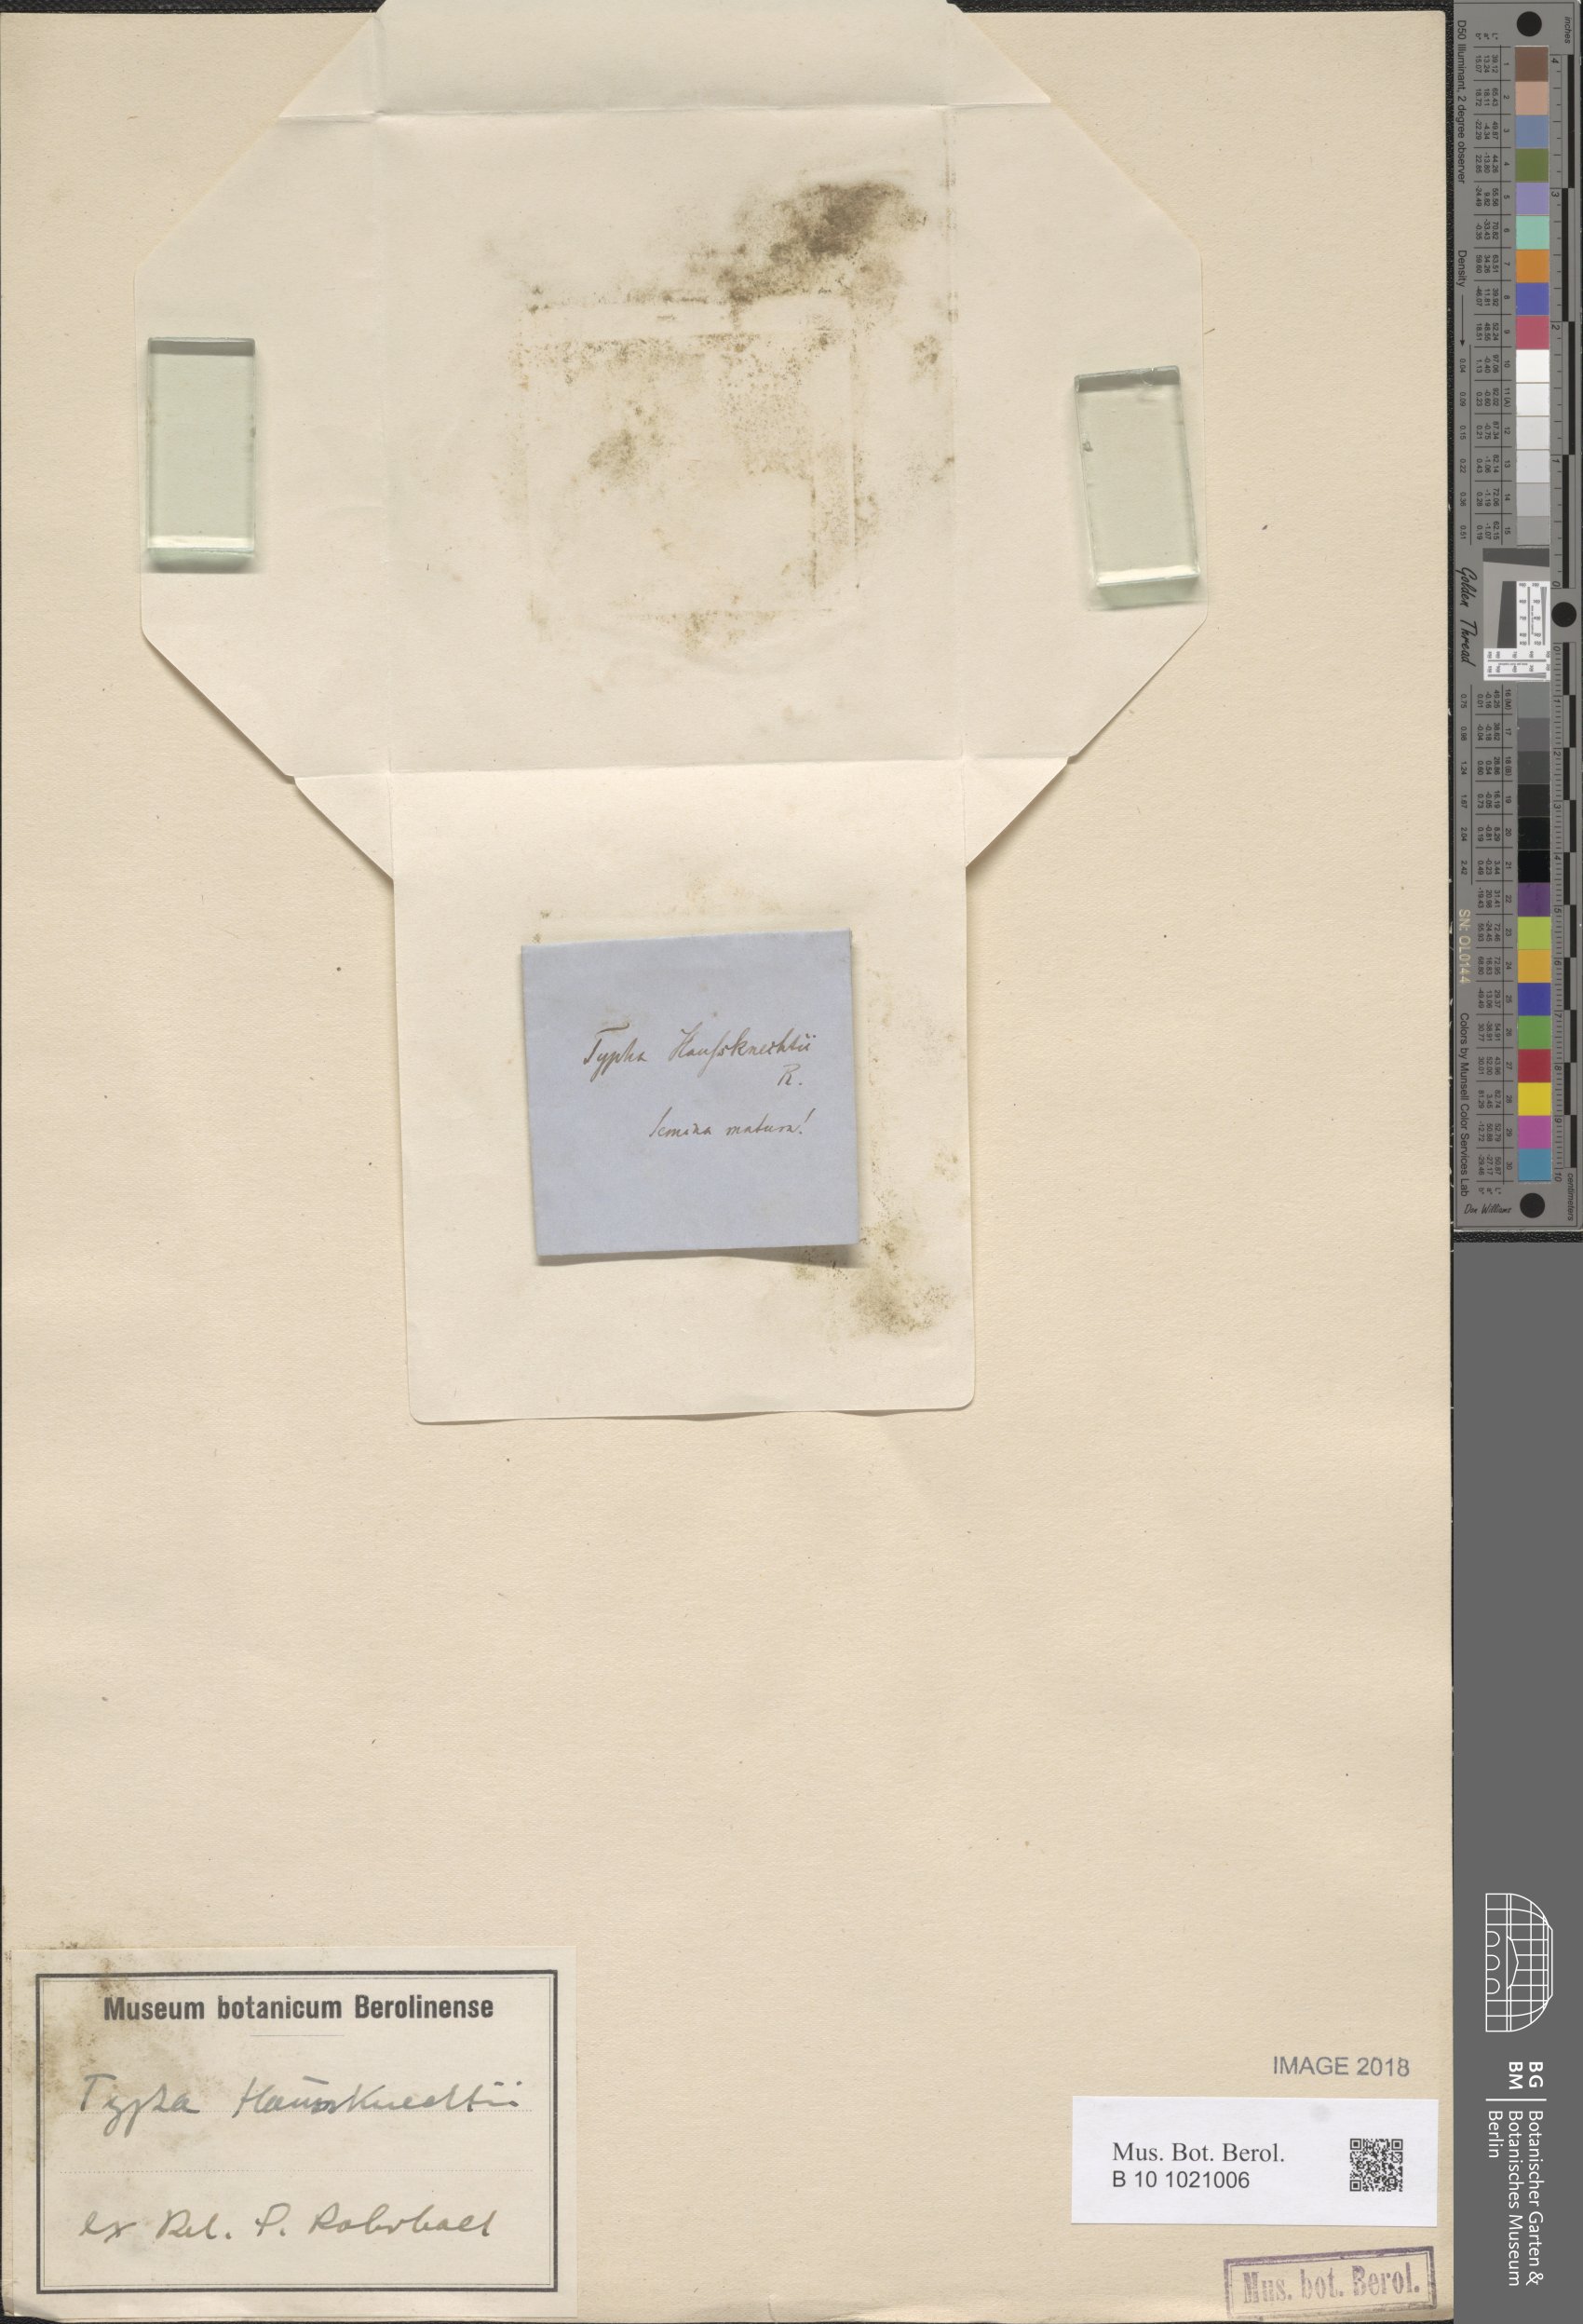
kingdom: Plantae
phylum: Tracheophyta
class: Liliopsida
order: Poales
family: Typhaceae
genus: Typha
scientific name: Typha lugdunensis
